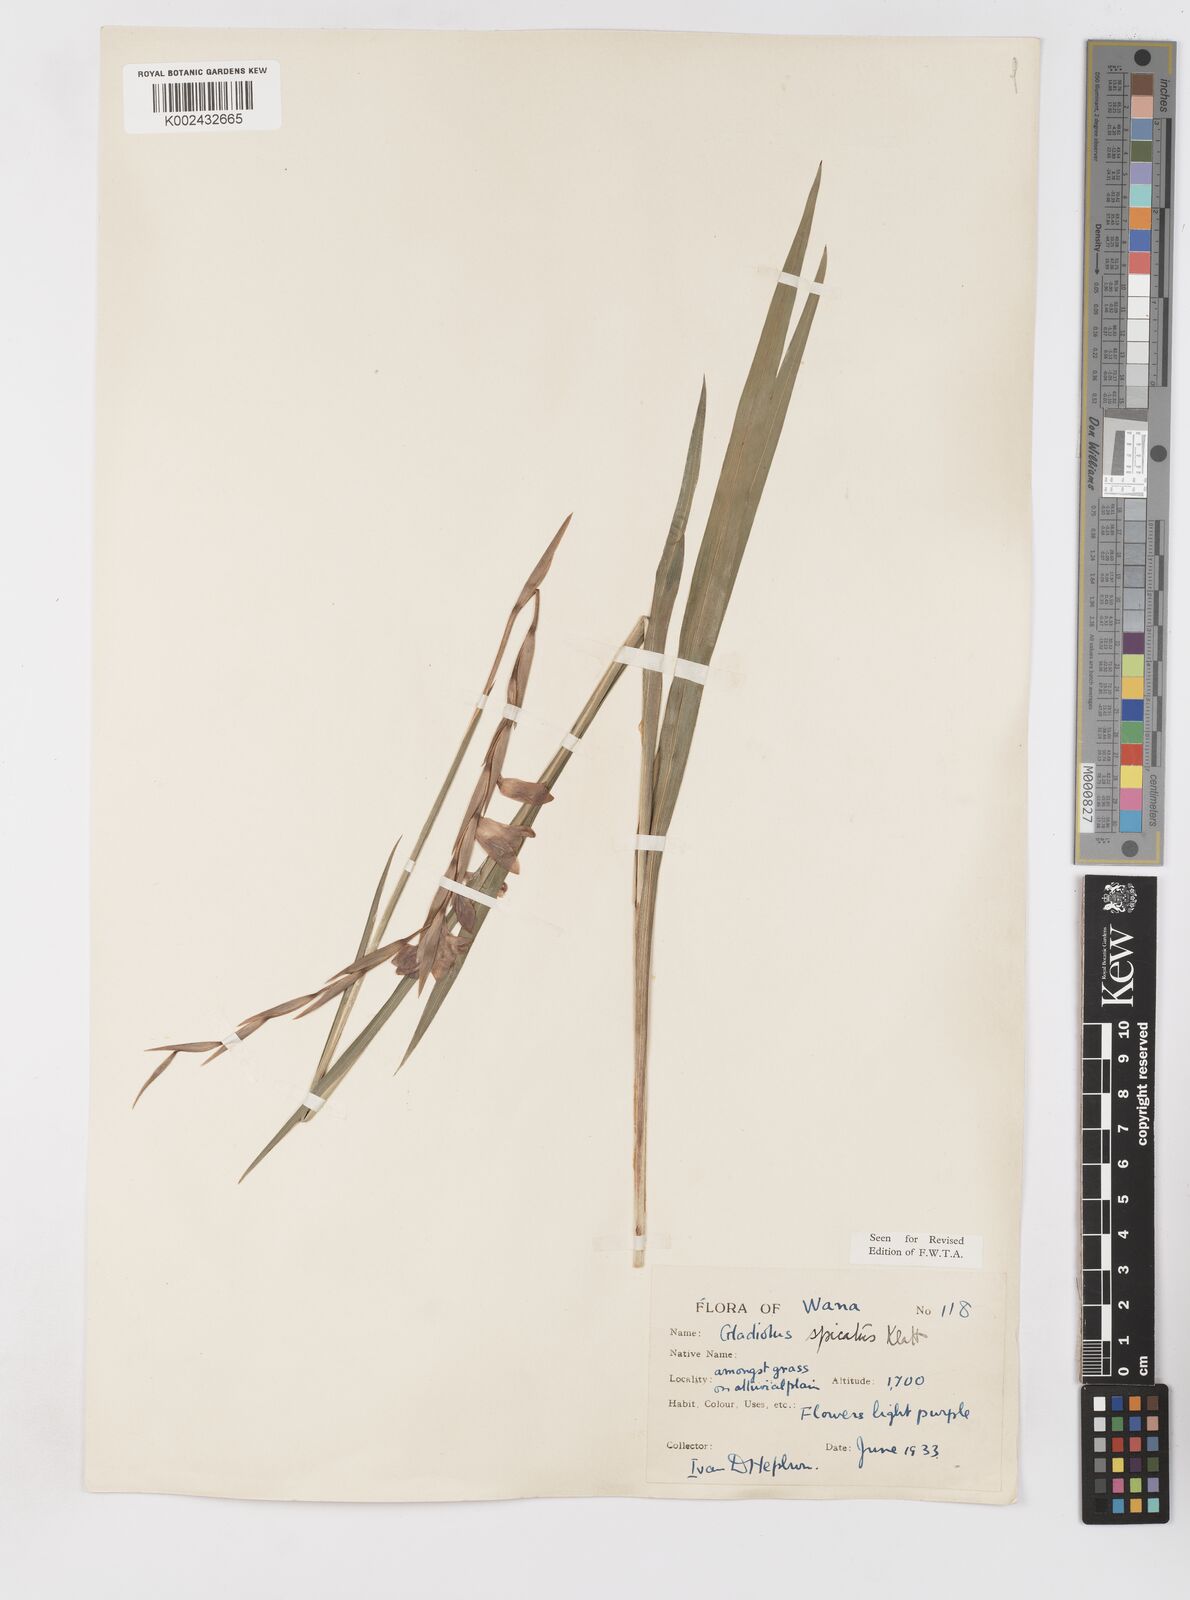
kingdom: Plantae
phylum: Tracheophyta
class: Liliopsida
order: Asparagales
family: Iridaceae
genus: Gladiolus
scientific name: Gladiolus gregarius
